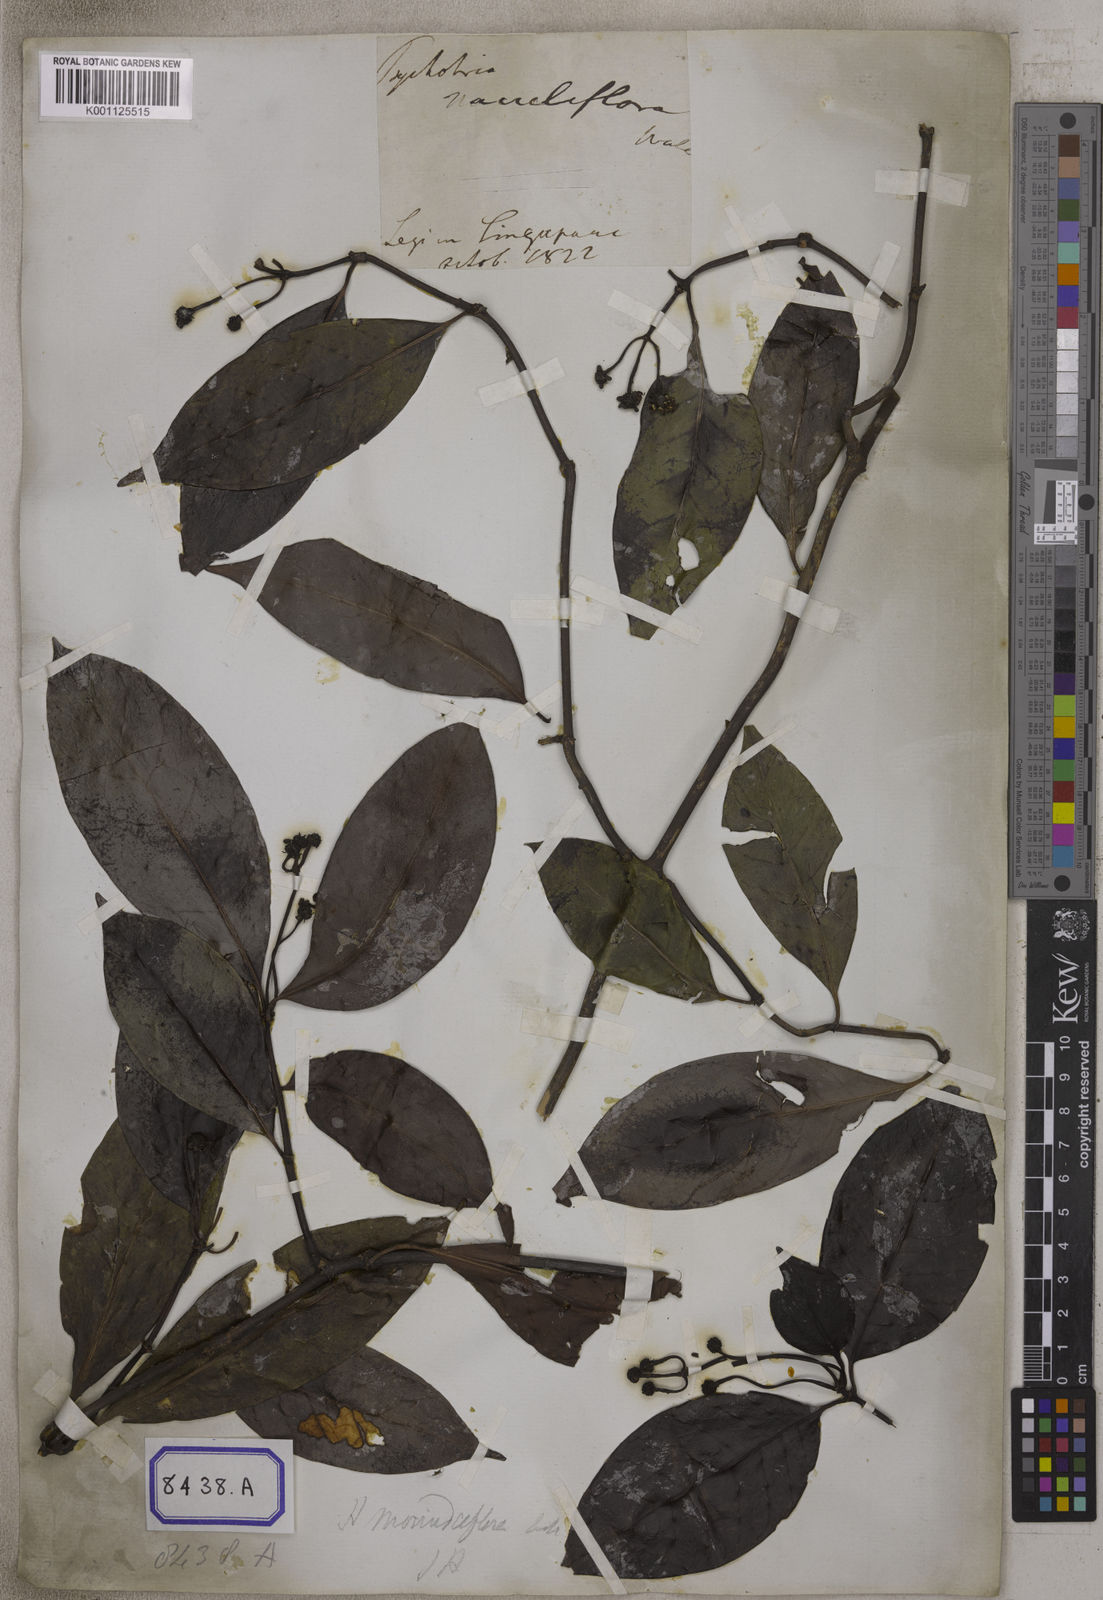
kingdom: Plantae
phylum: Tracheophyta
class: Magnoliopsida
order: Gentianales
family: Rubiaceae
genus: Psychotria
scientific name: Psychotria
